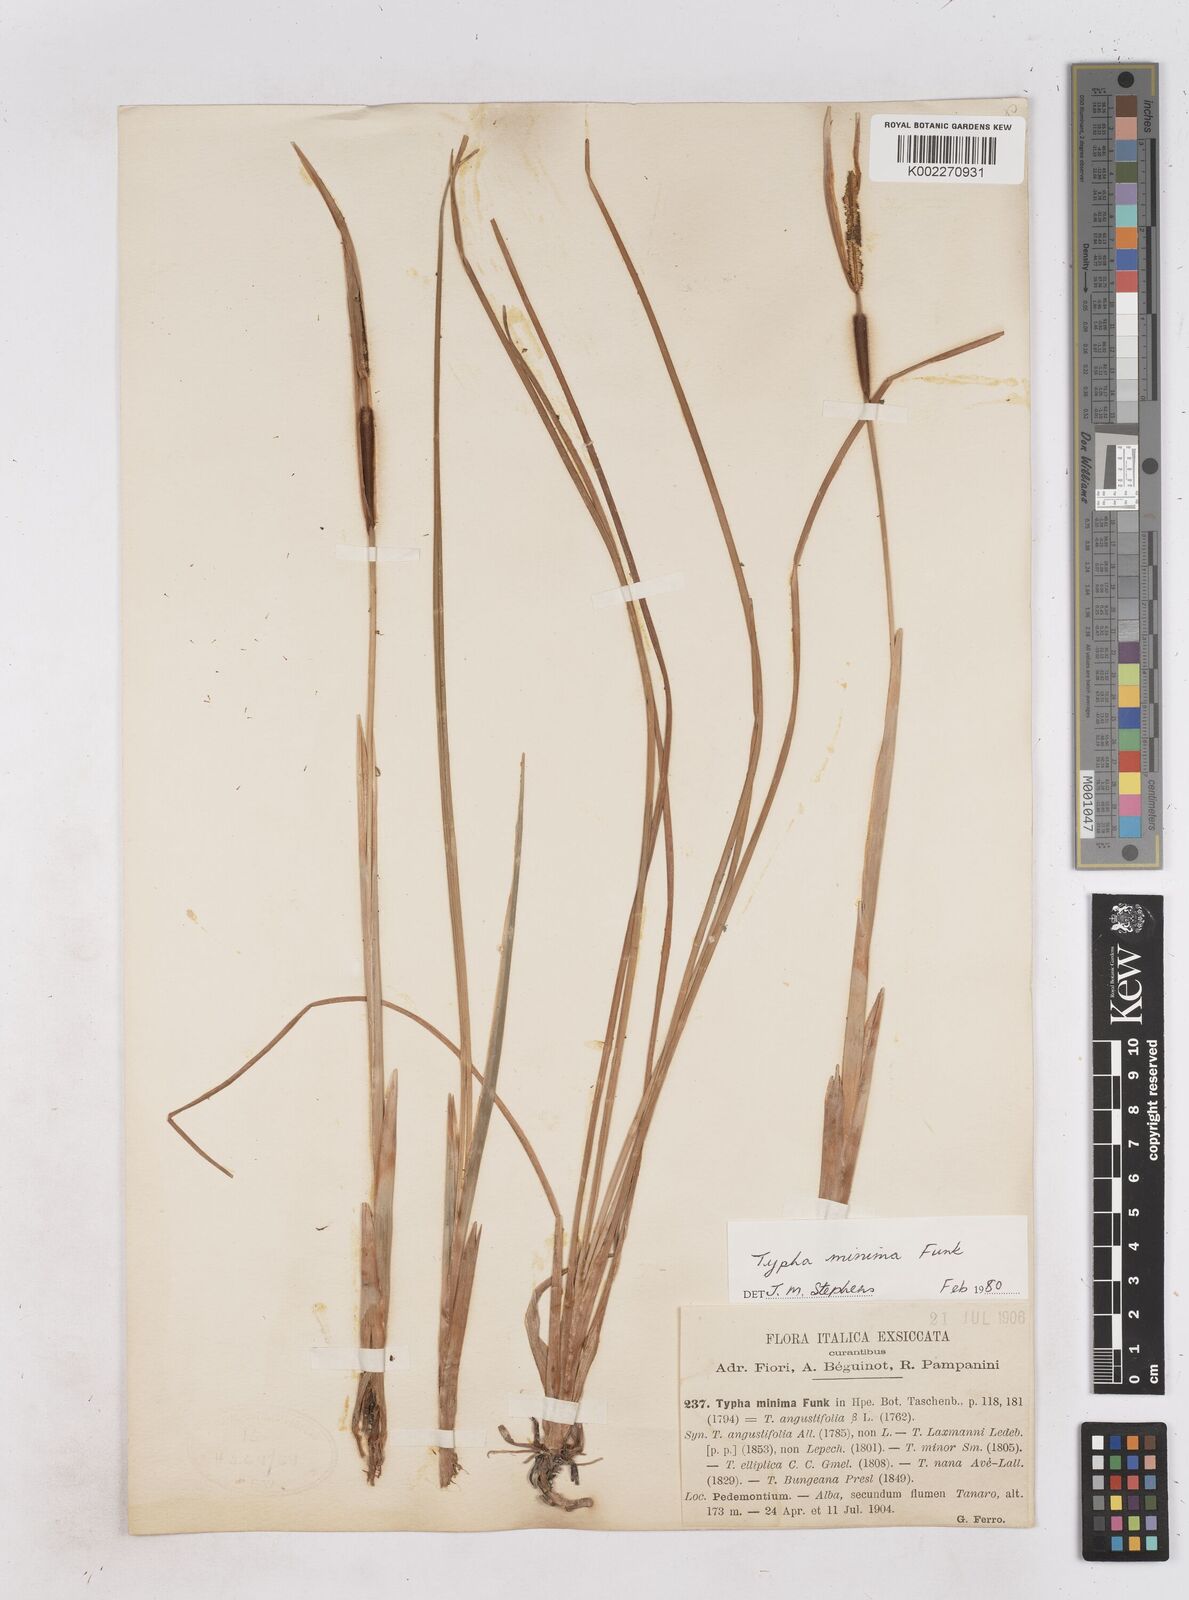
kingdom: Plantae
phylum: Tracheophyta
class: Liliopsida
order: Poales
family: Typhaceae
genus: Typha
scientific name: Typha minima
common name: Dwarf bulrush
